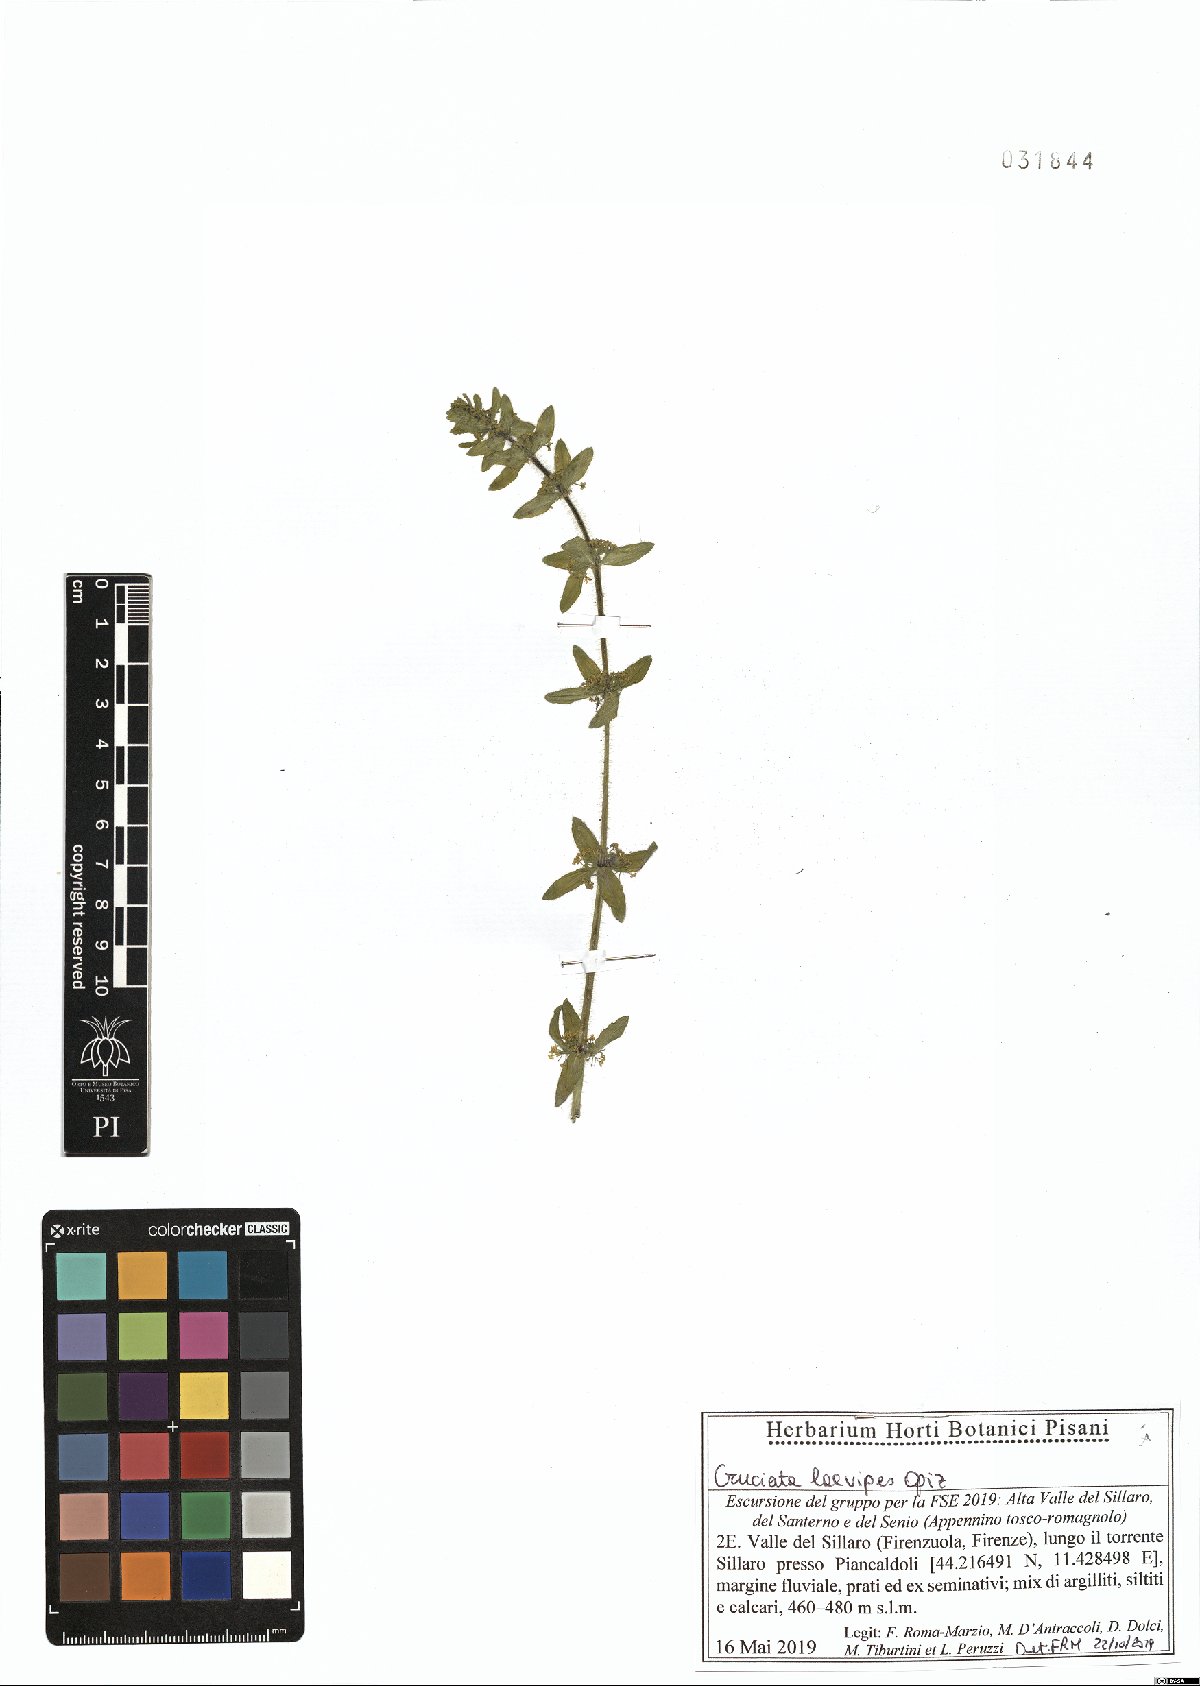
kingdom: Plantae
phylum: Tracheophyta
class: Magnoliopsida
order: Gentianales
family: Rubiaceae
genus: Cruciata
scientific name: Cruciata laevipes
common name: Crosswort
